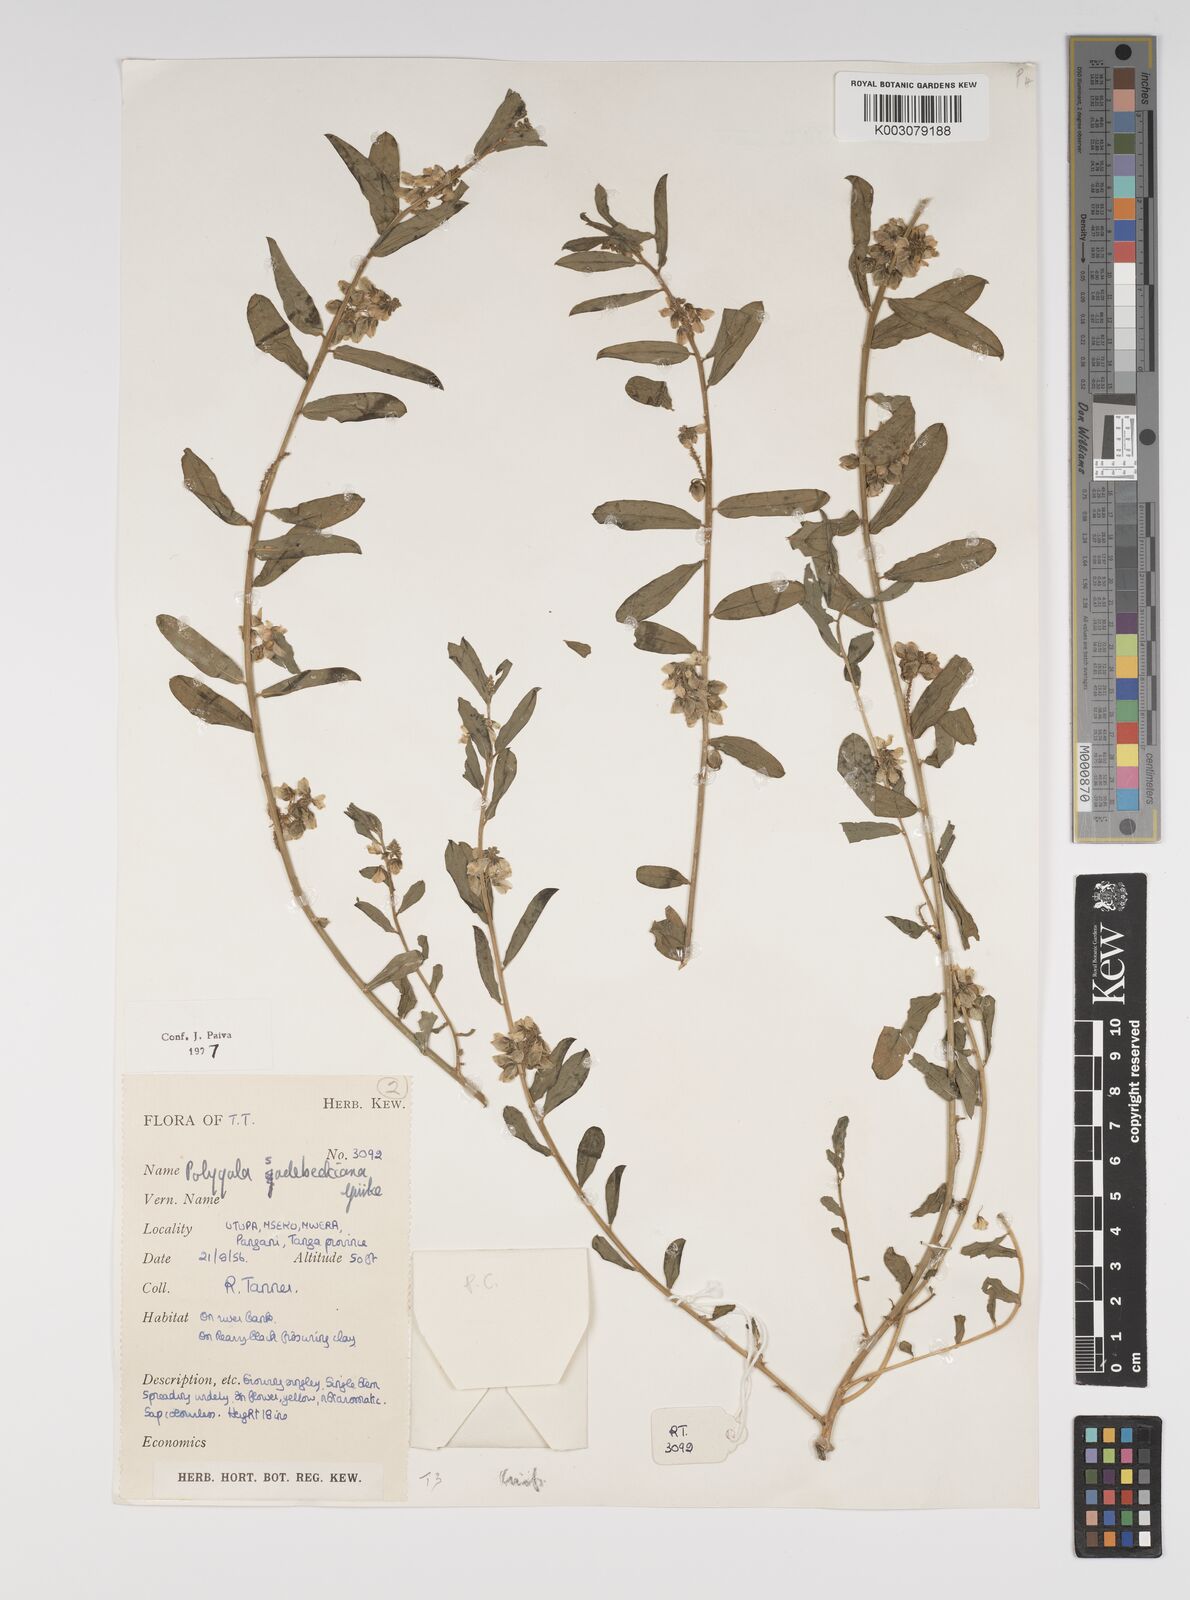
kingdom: Plantae
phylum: Tracheophyta
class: Magnoliopsida
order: Fabales
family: Polygalaceae
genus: Polygala
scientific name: Polygala sadebeckiana
